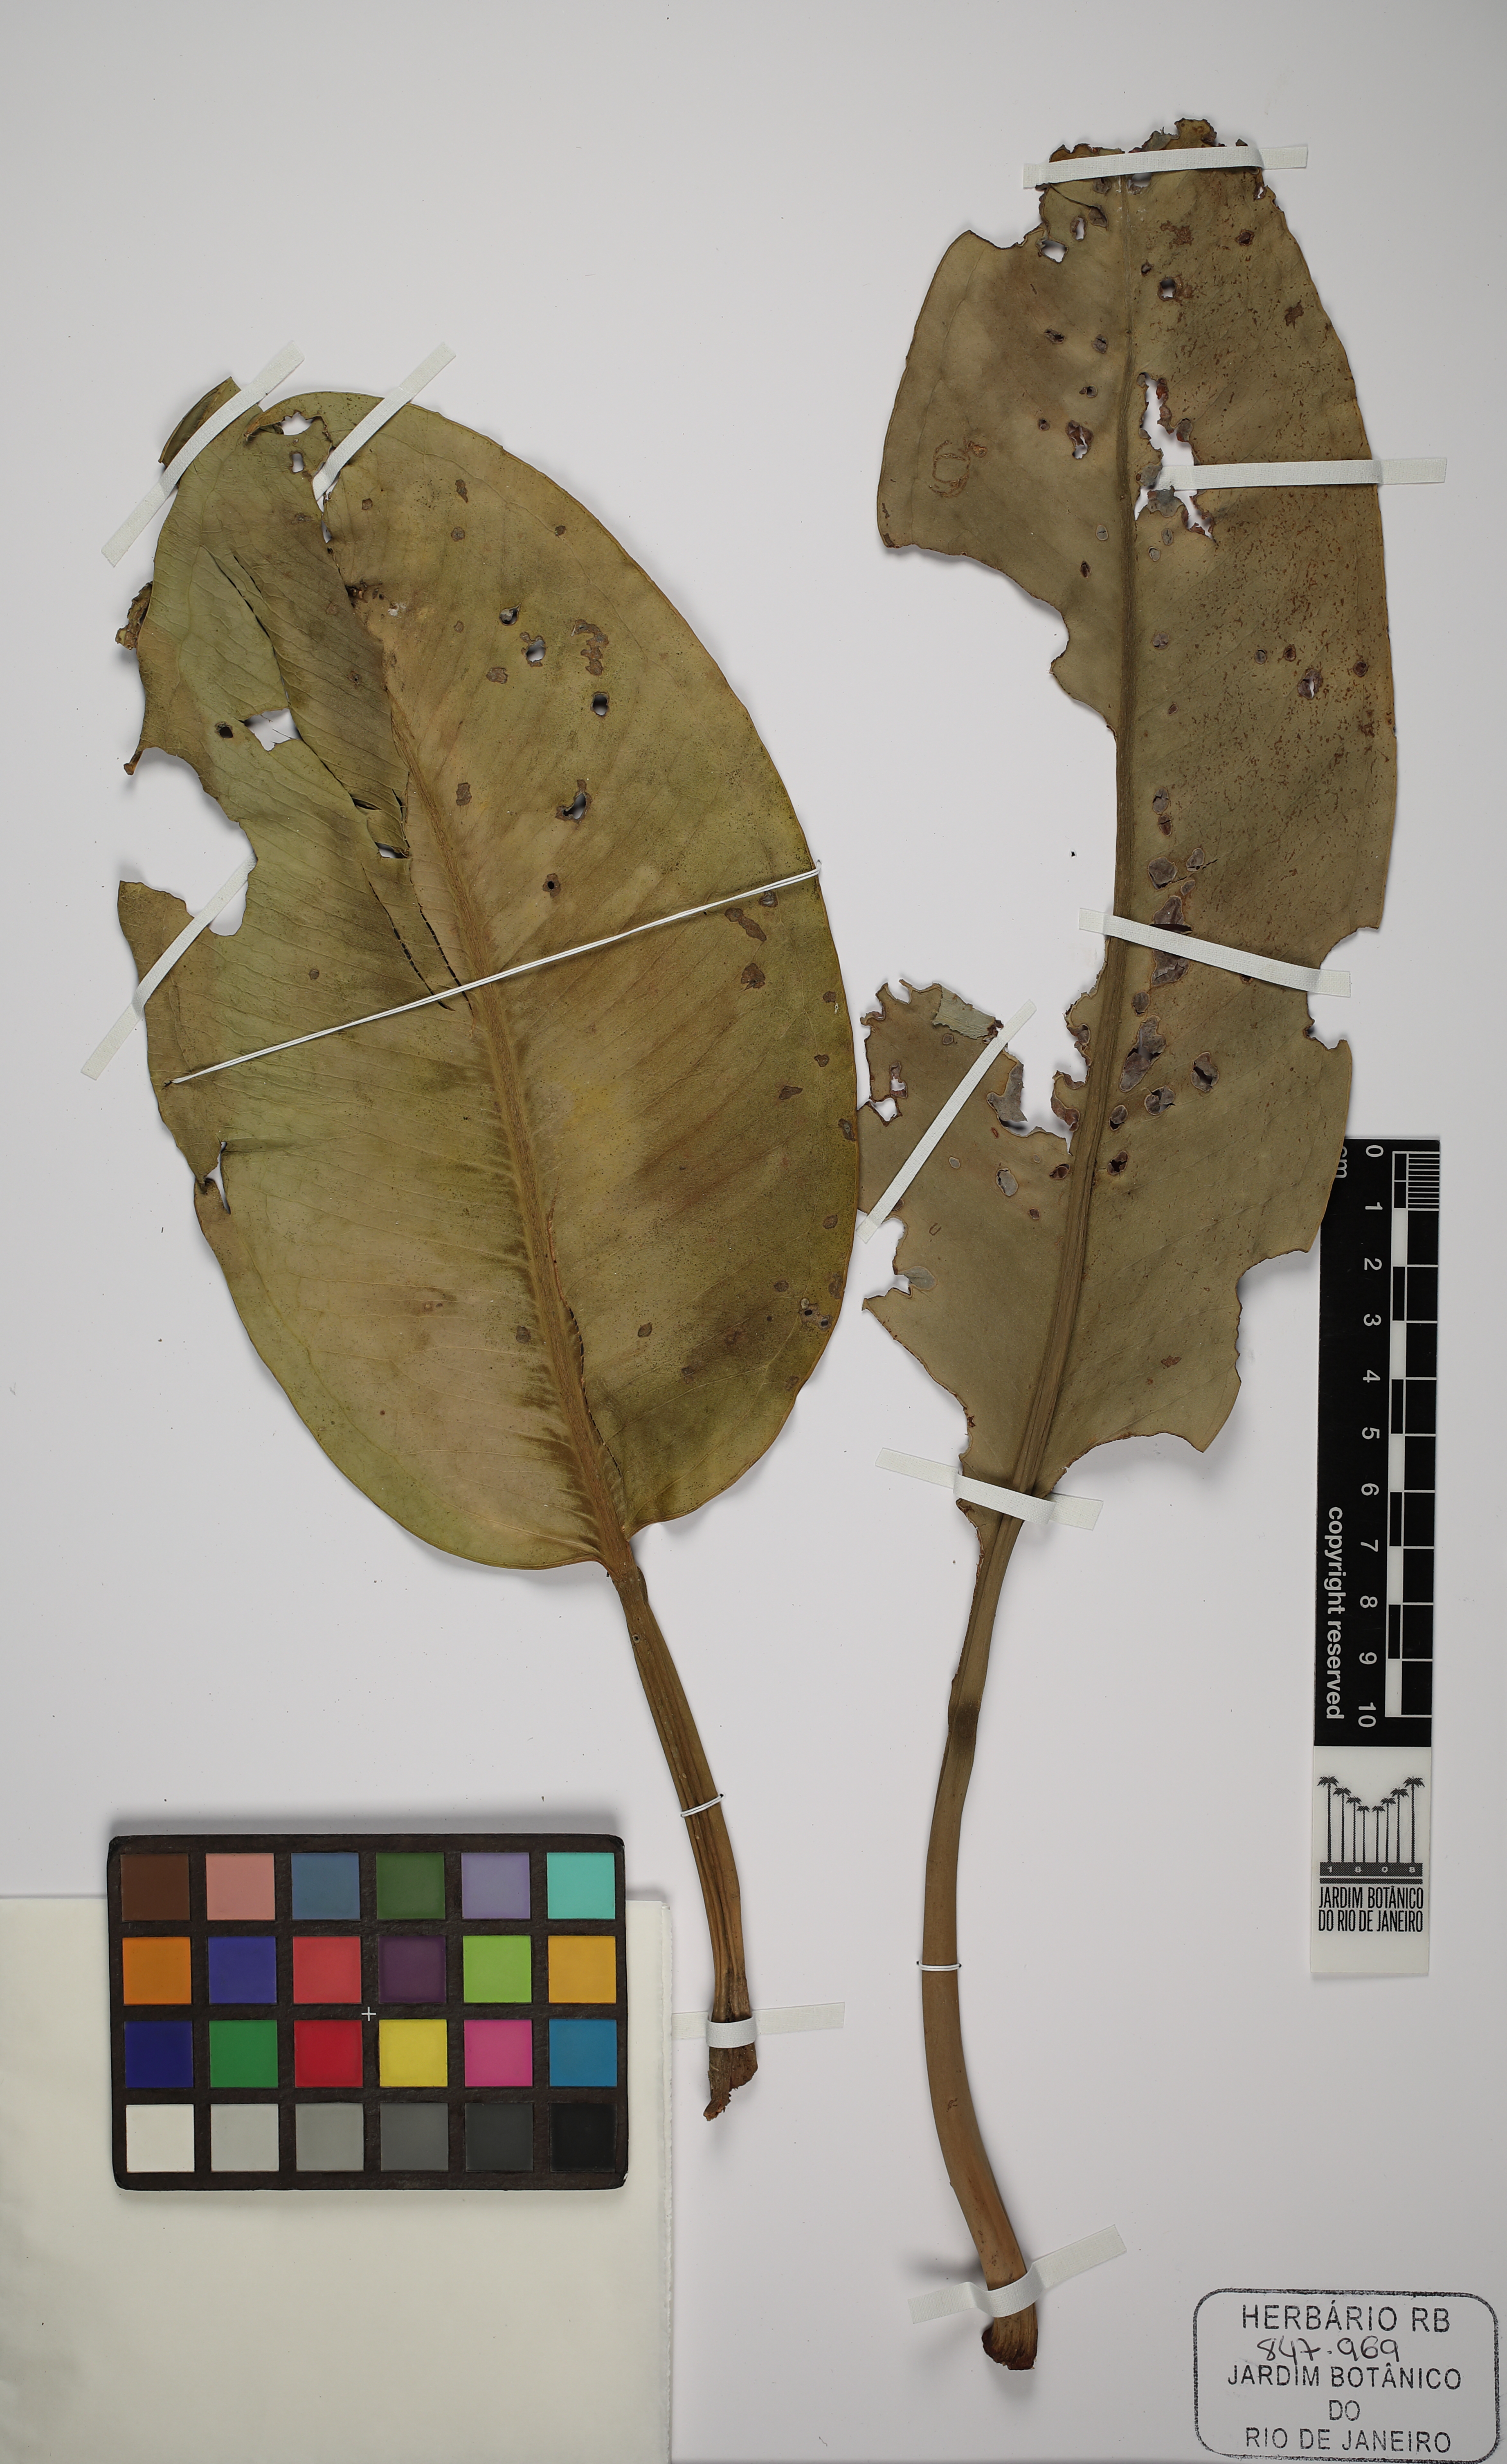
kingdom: Plantae
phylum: Tracheophyta
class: Liliopsida
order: Alismatales
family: Araceae
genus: Anthurium
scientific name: Anthurium
